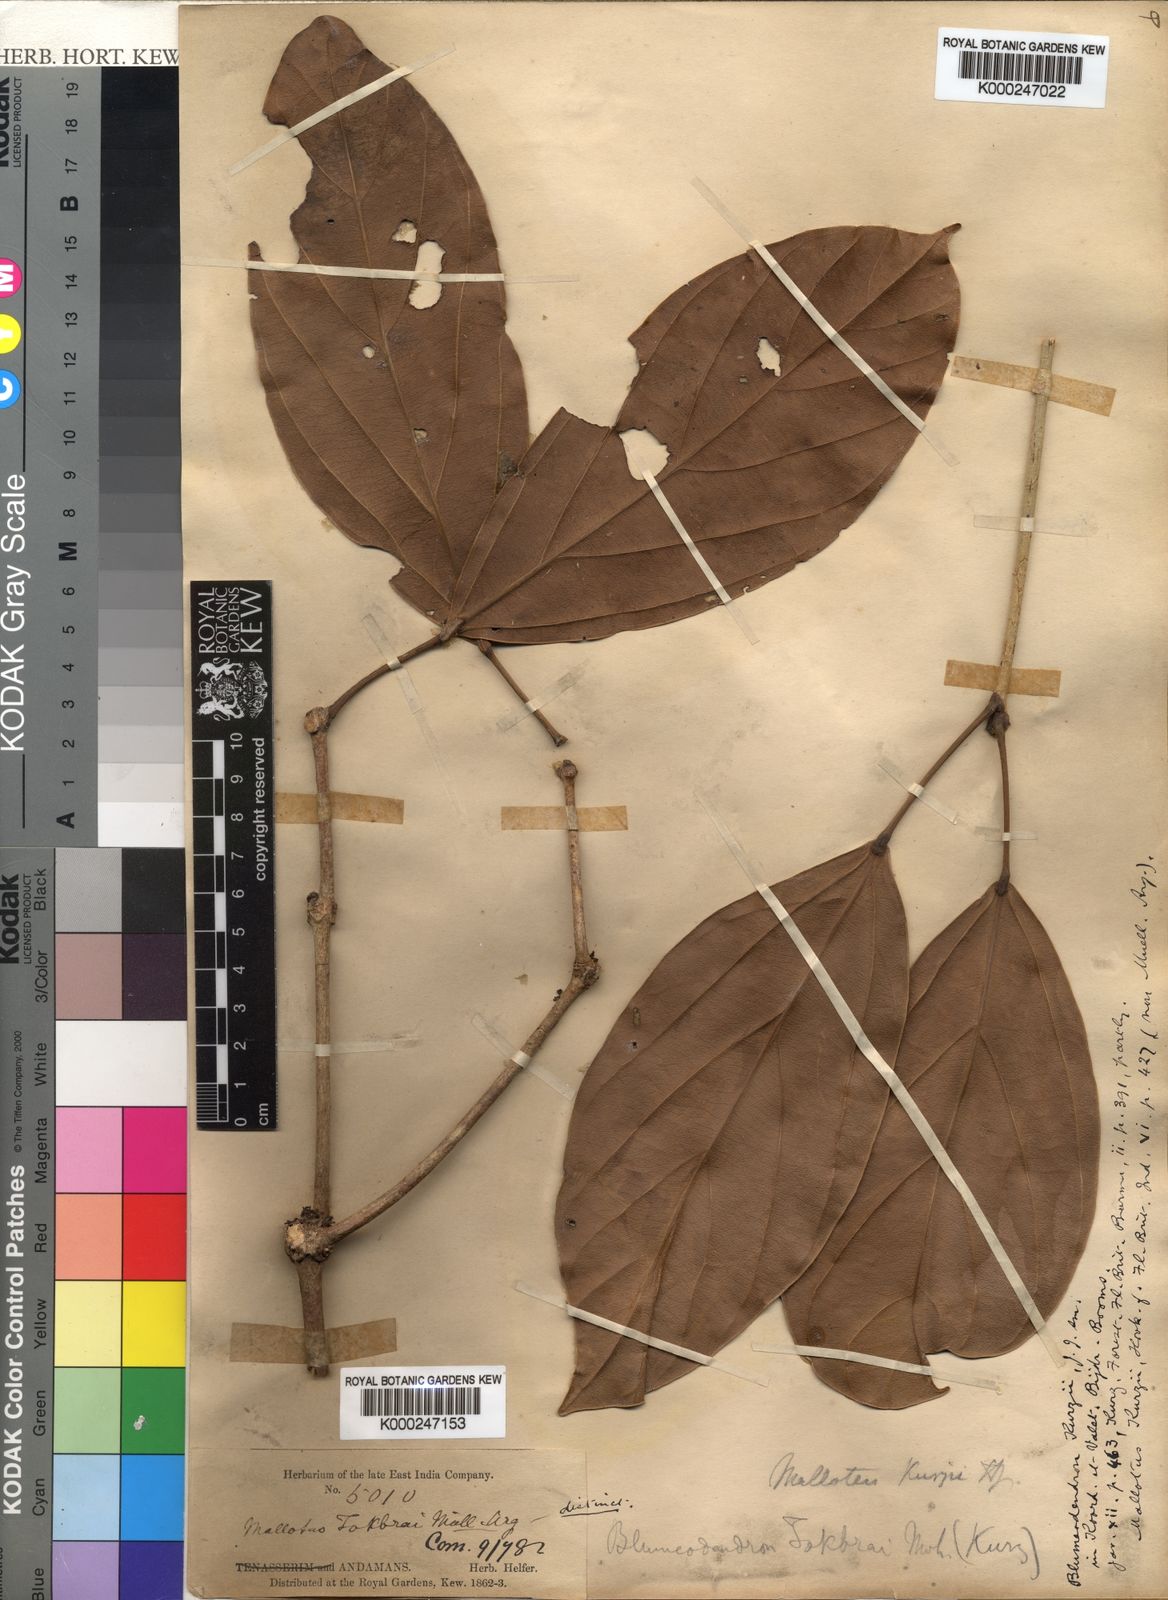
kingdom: Plantae
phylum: Tracheophyta
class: Magnoliopsida
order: Malpighiales
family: Euphorbiaceae
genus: Blumeodendron
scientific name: Blumeodendron kurzii
